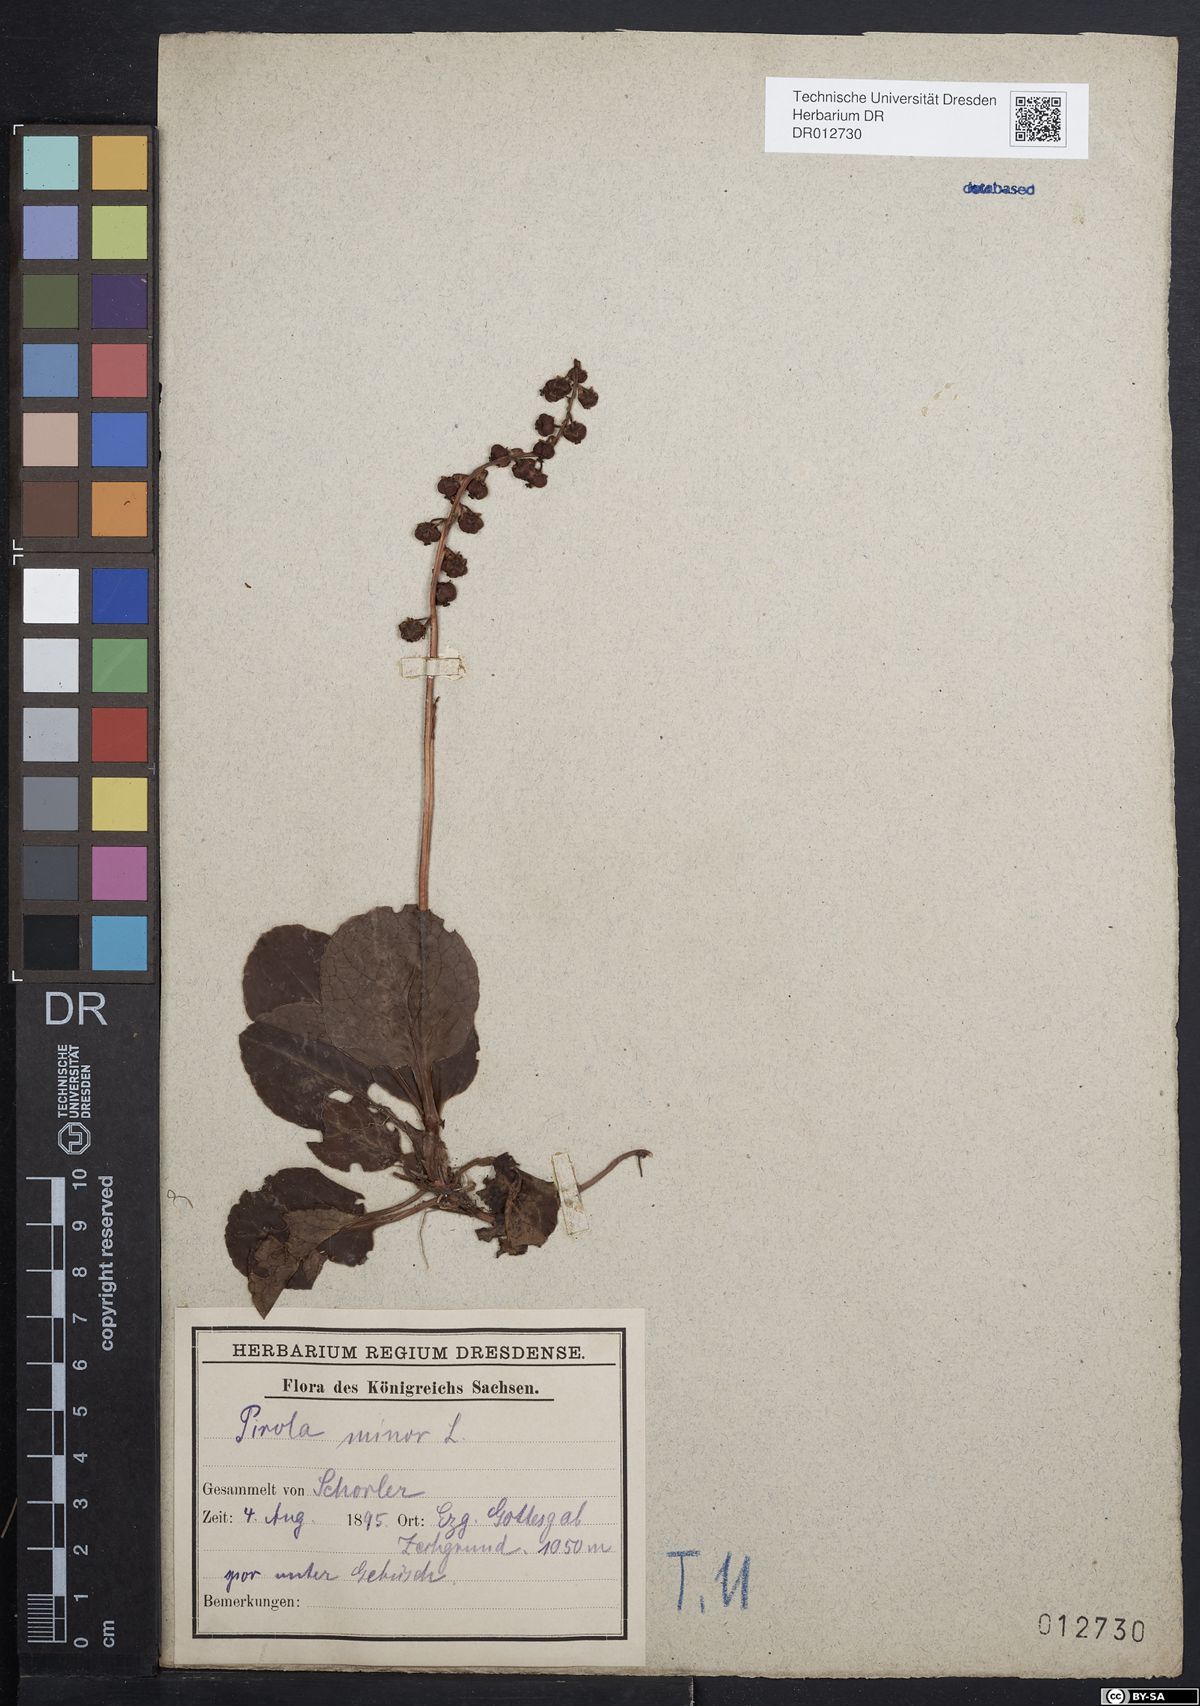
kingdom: Plantae
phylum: Tracheophyta
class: Magnoliopsida
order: Ericales
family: Ericaceae
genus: Pyrola
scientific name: Pyrola minor
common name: Common wintergreen
